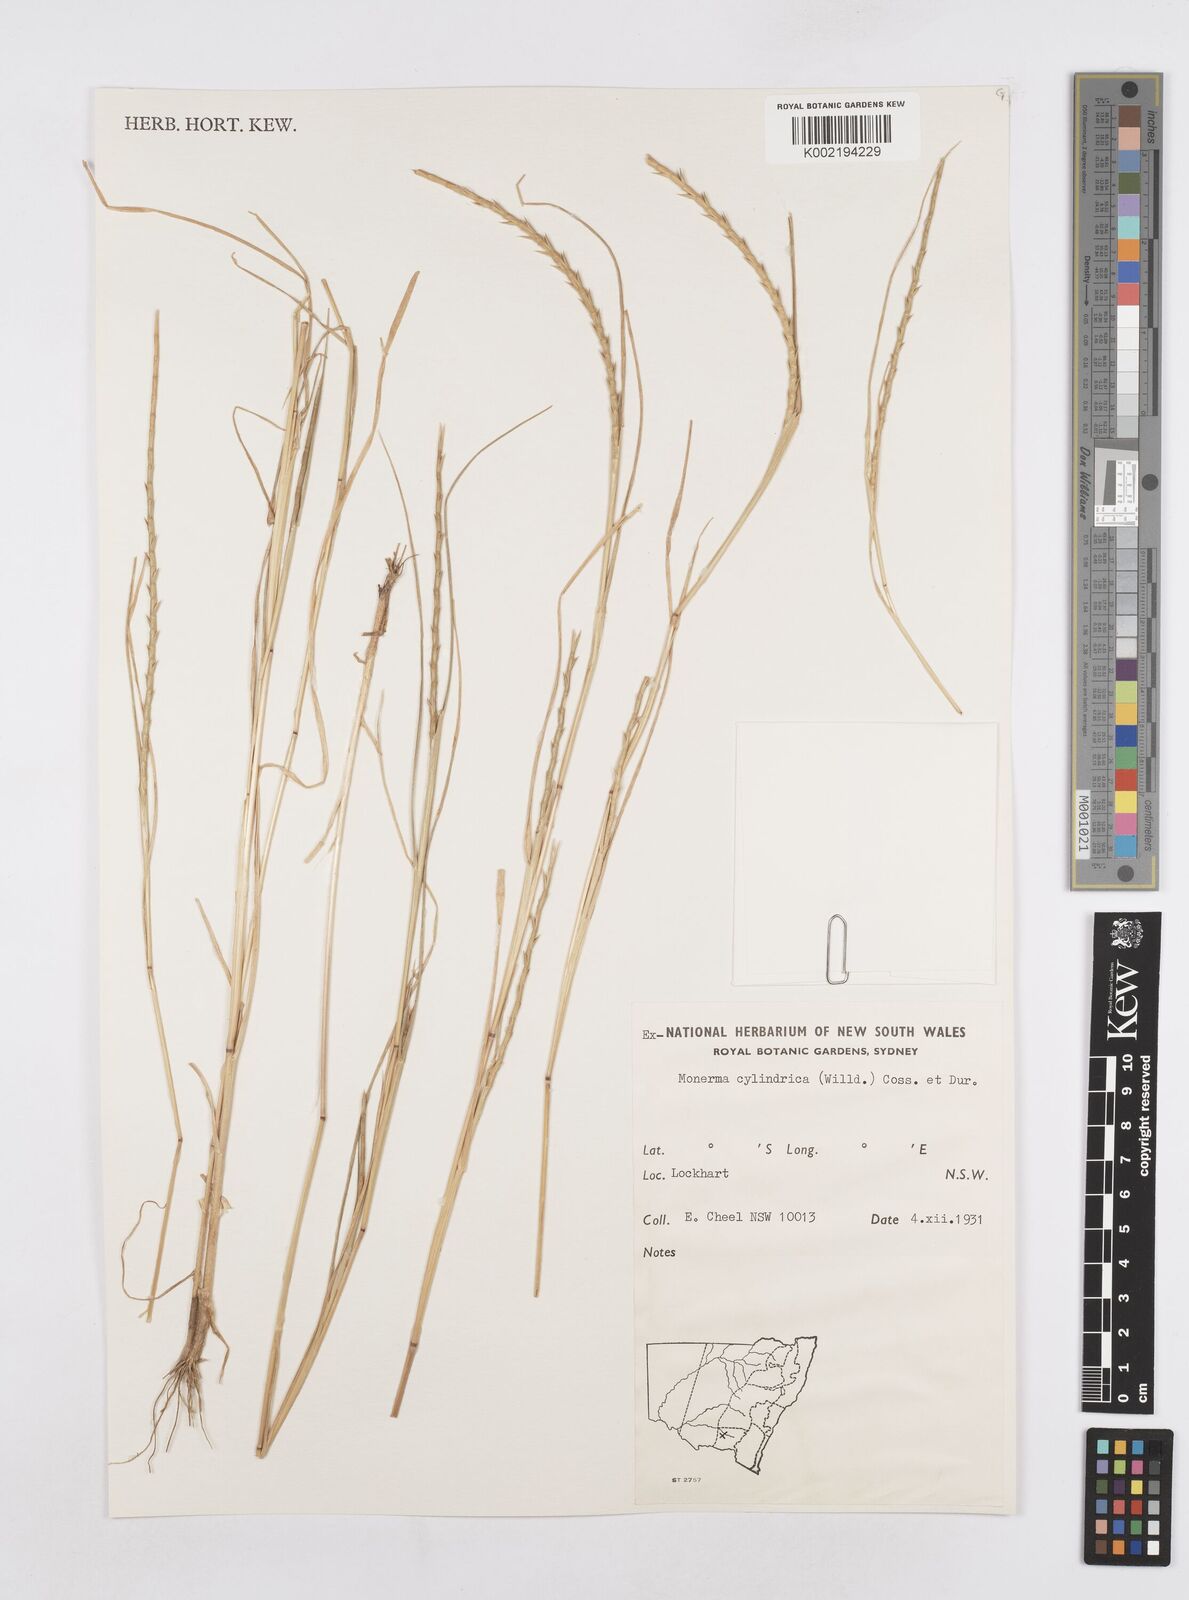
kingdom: Plantae
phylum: Tracheophyta
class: Liliopsida
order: Poales
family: Poaceae
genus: Parapholis
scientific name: Parapholis cylindrica
